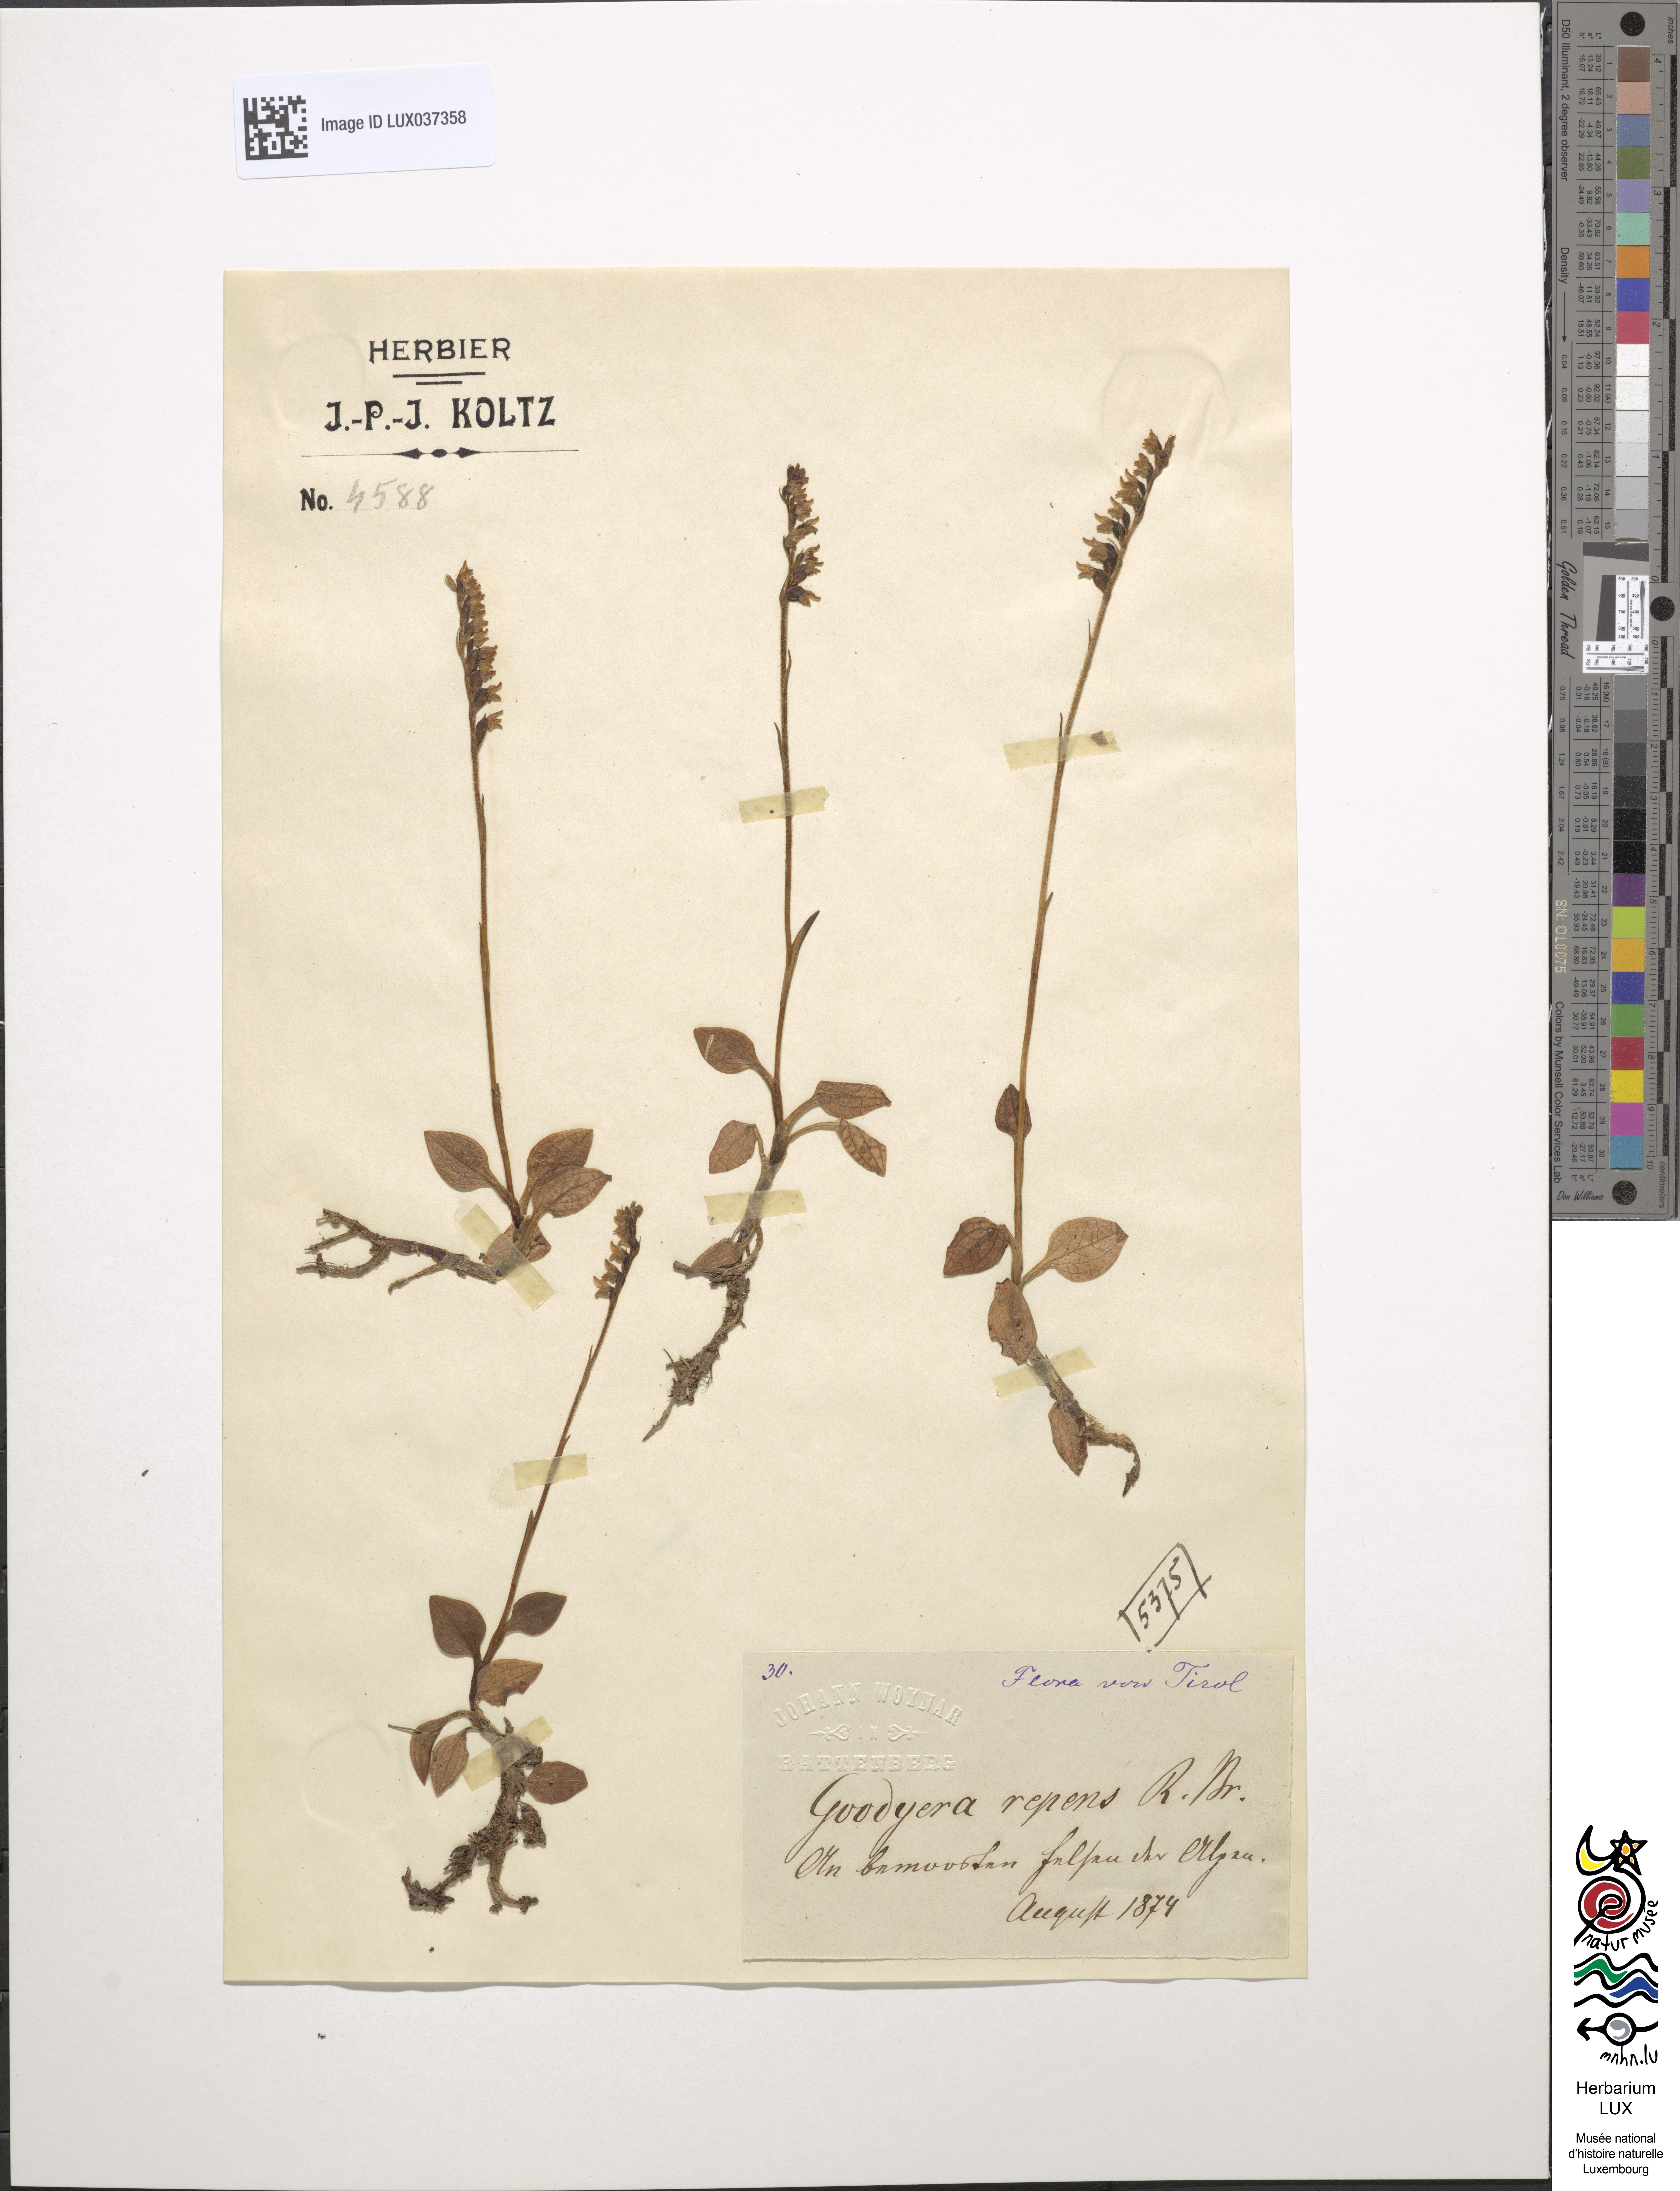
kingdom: Plantae
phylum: Tracheophyta
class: Liliopsida
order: Asparagales
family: Orchidaceae
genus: Goodyera
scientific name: Goodyera repens
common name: Creeping lady's-tresses
